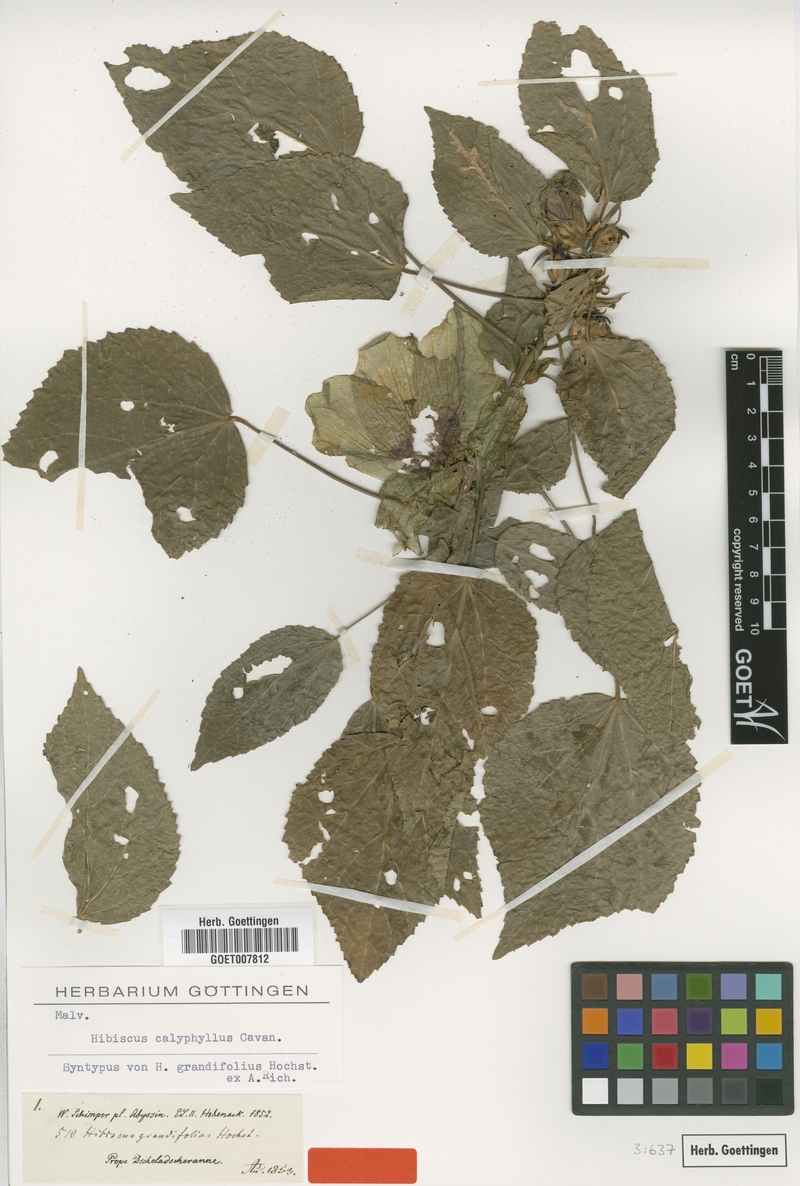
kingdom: Plantae
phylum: Tracheophyta
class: Magnoliopsida
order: Malvales
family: Malvaceae
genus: Hibiscus
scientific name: Hibiscus calyphyllus
